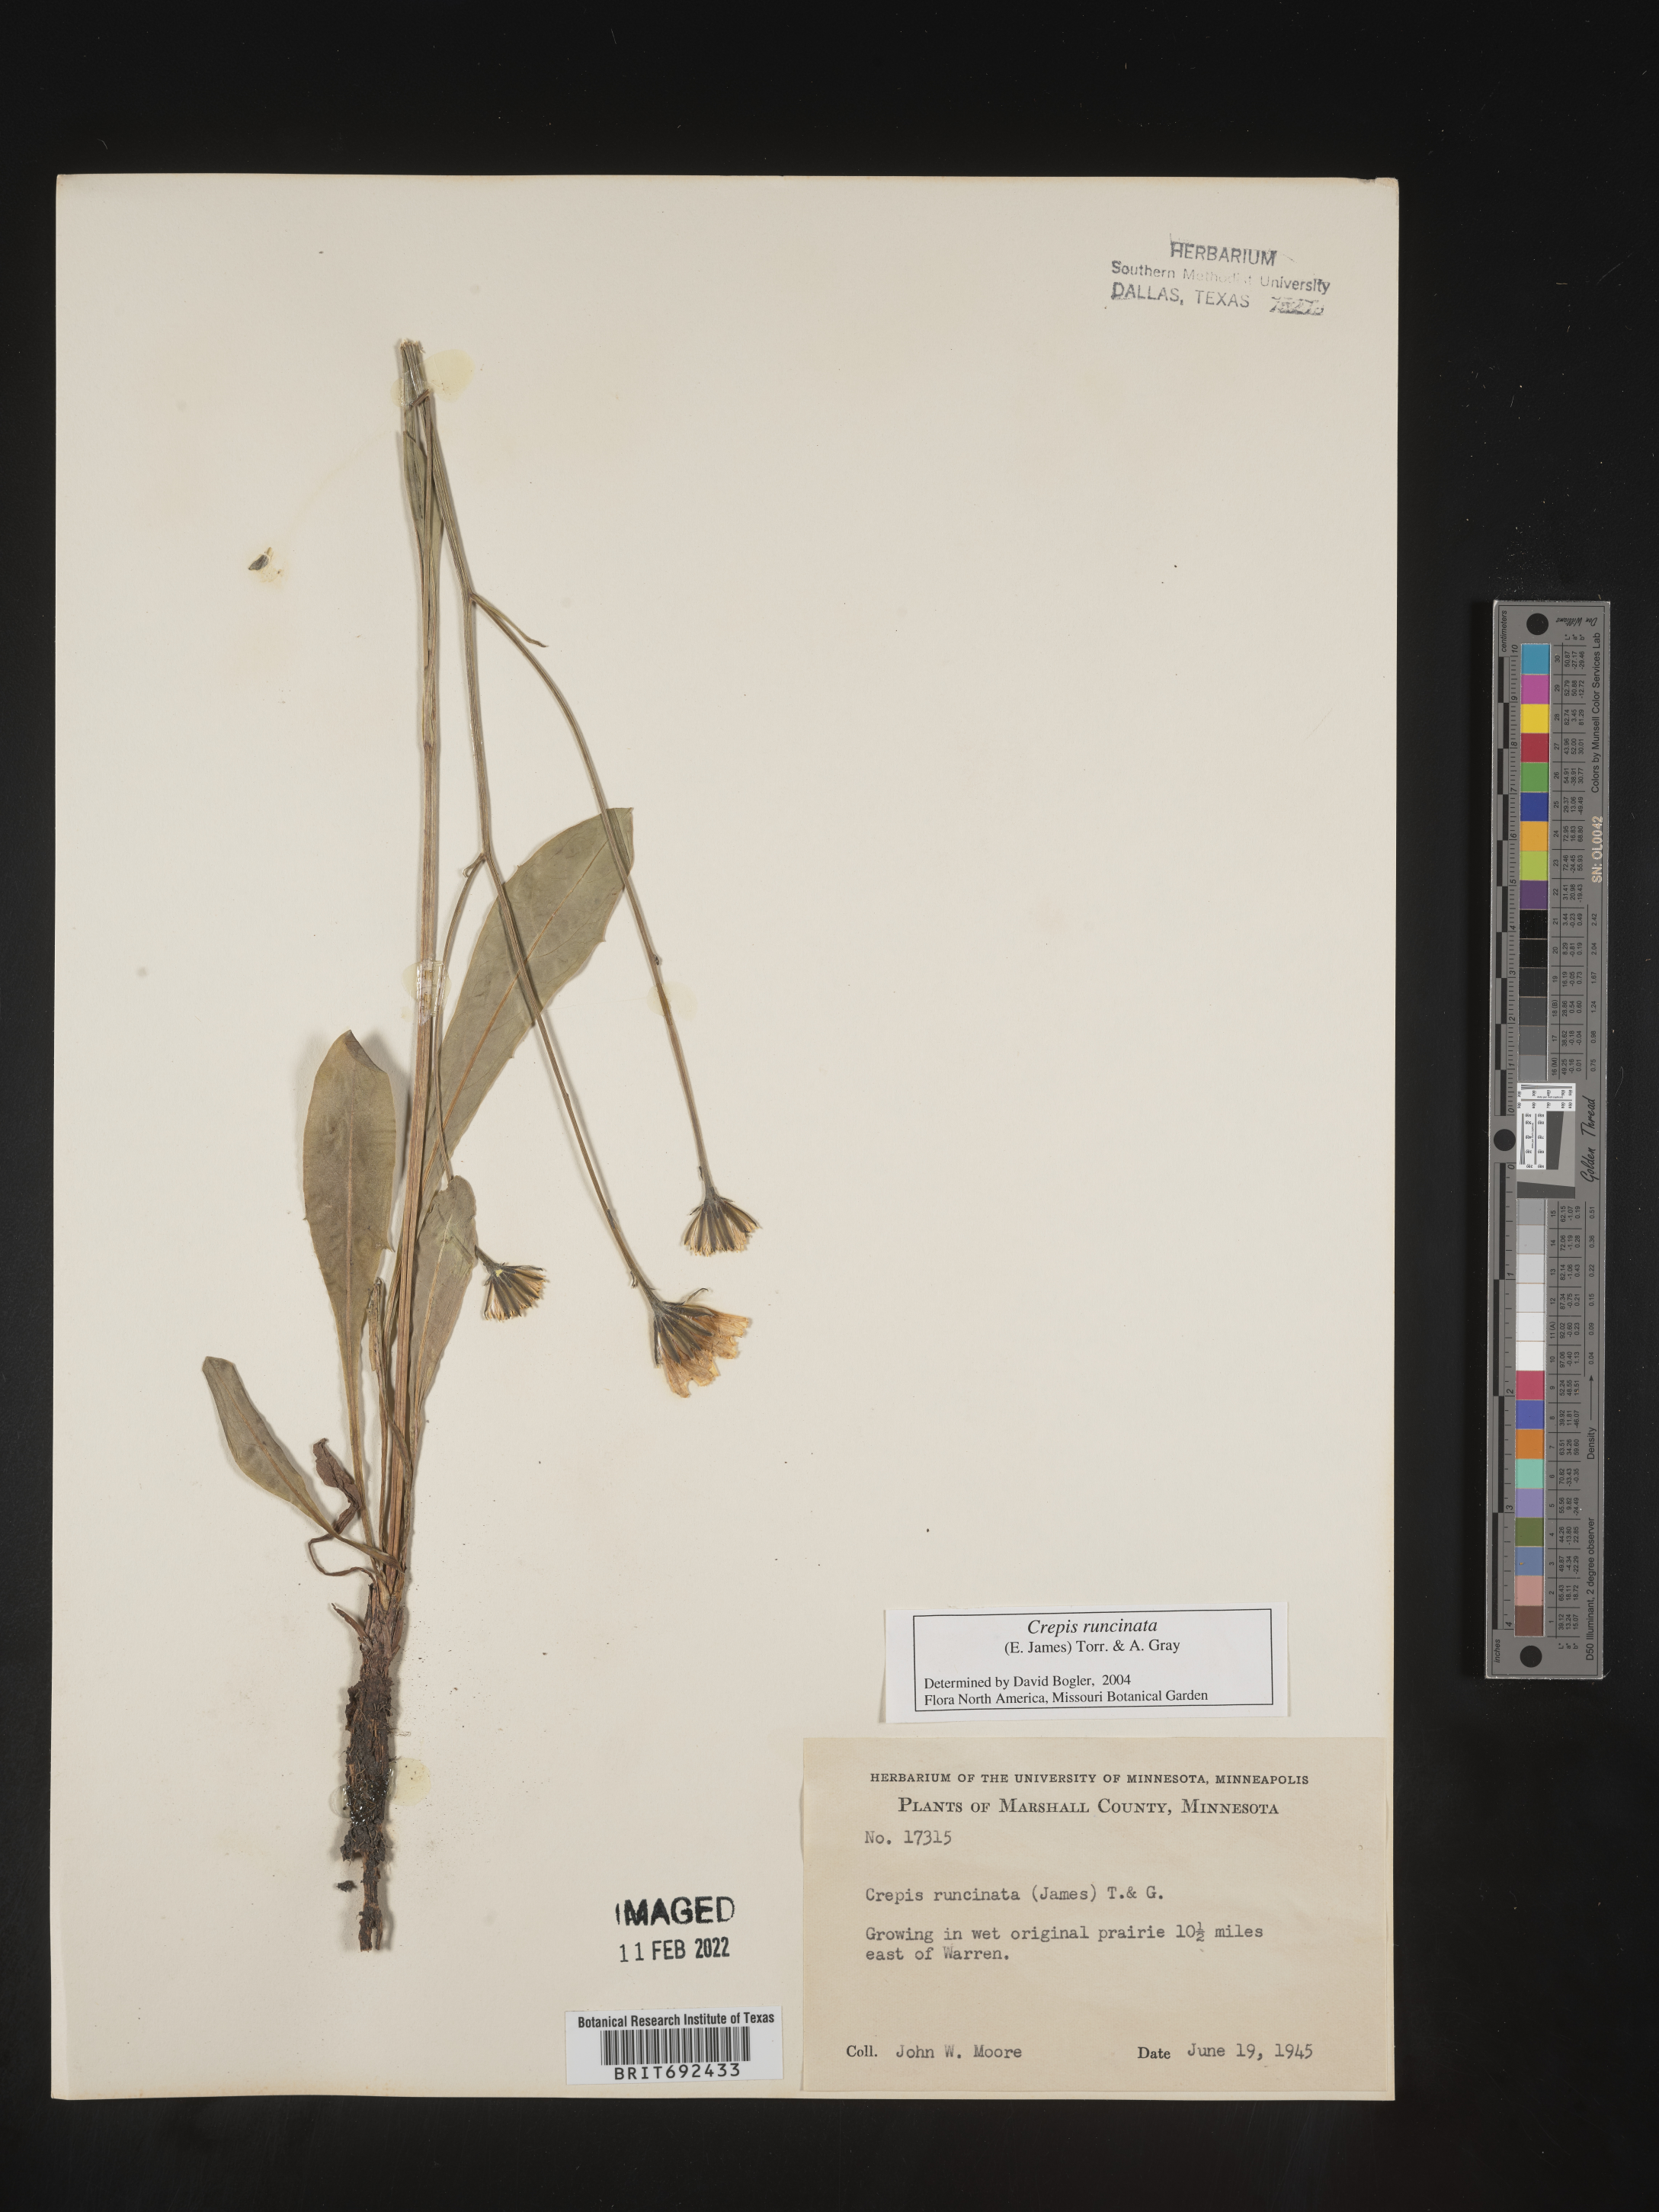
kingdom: Plantae
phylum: Tracheophyta
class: Magnoliopsida
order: Asterales
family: Asteraceae
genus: Crepis
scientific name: Crepis
